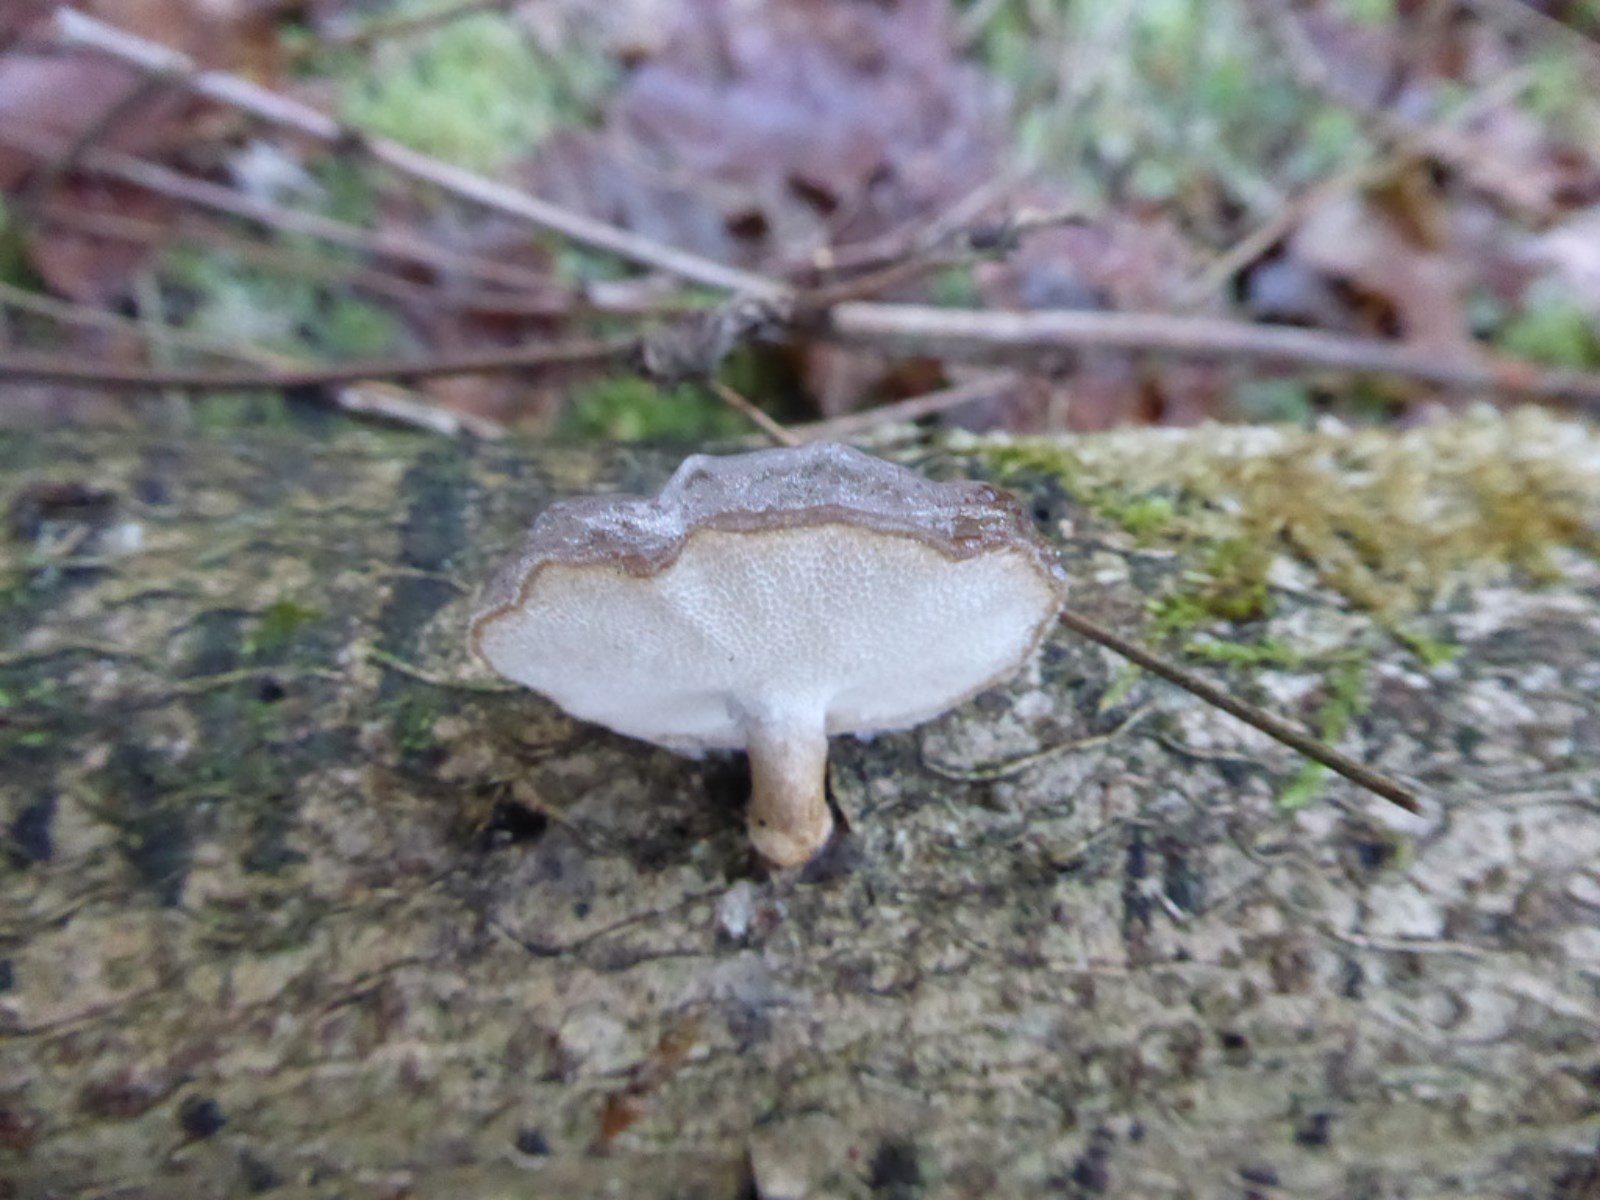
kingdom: Fungi
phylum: Basidiomycota
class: Agaricomycetes
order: Polyporales
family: Polyporaceae
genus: Lentinus
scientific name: Lentinus brumalis
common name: vinter-stilkporesvamp
